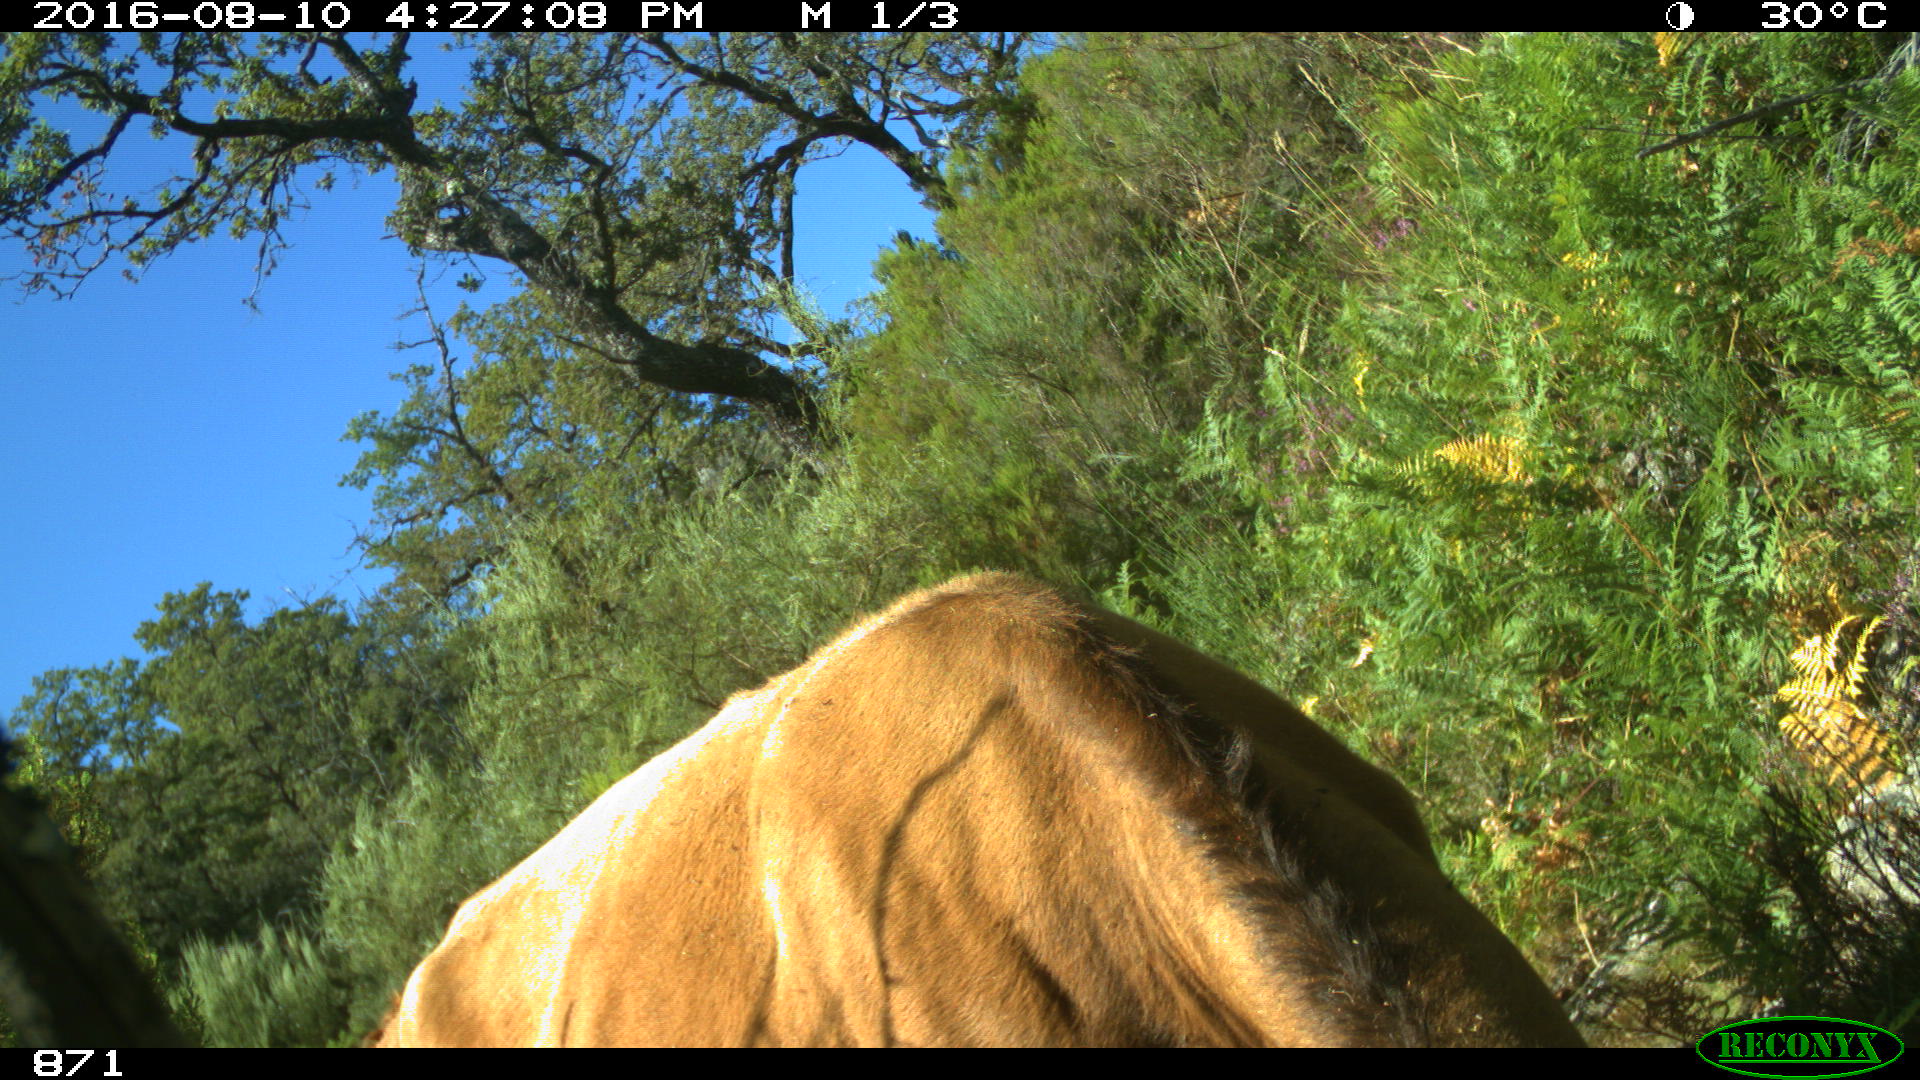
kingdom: Animalia
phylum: Chordata
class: Mammalia
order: Artiodactyla
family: Bovidae
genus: Bos
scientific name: Bos taurus
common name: Domesticated cattle
